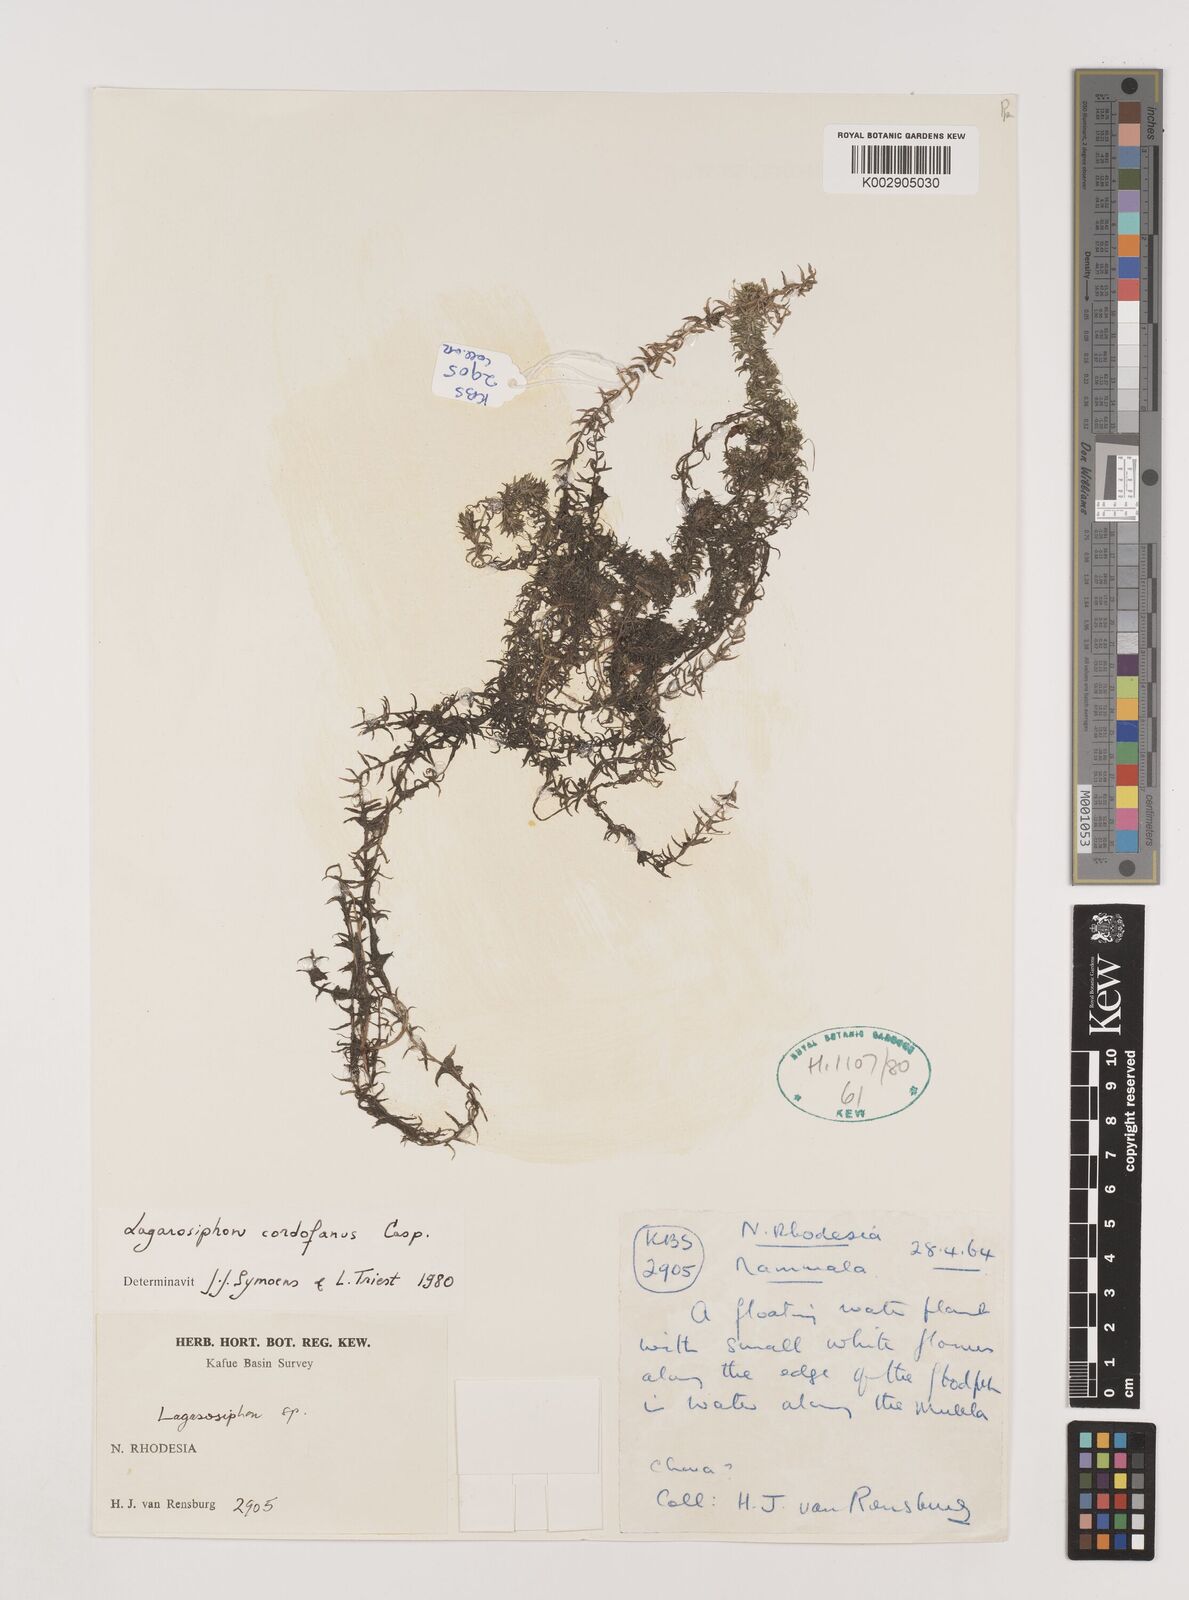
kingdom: Plantae
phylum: Tracheophyta
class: Liliopsida
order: Alismatales
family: Hydrocharitaceae
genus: Lagarosiphon
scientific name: Lagarosiphon cordofanus
